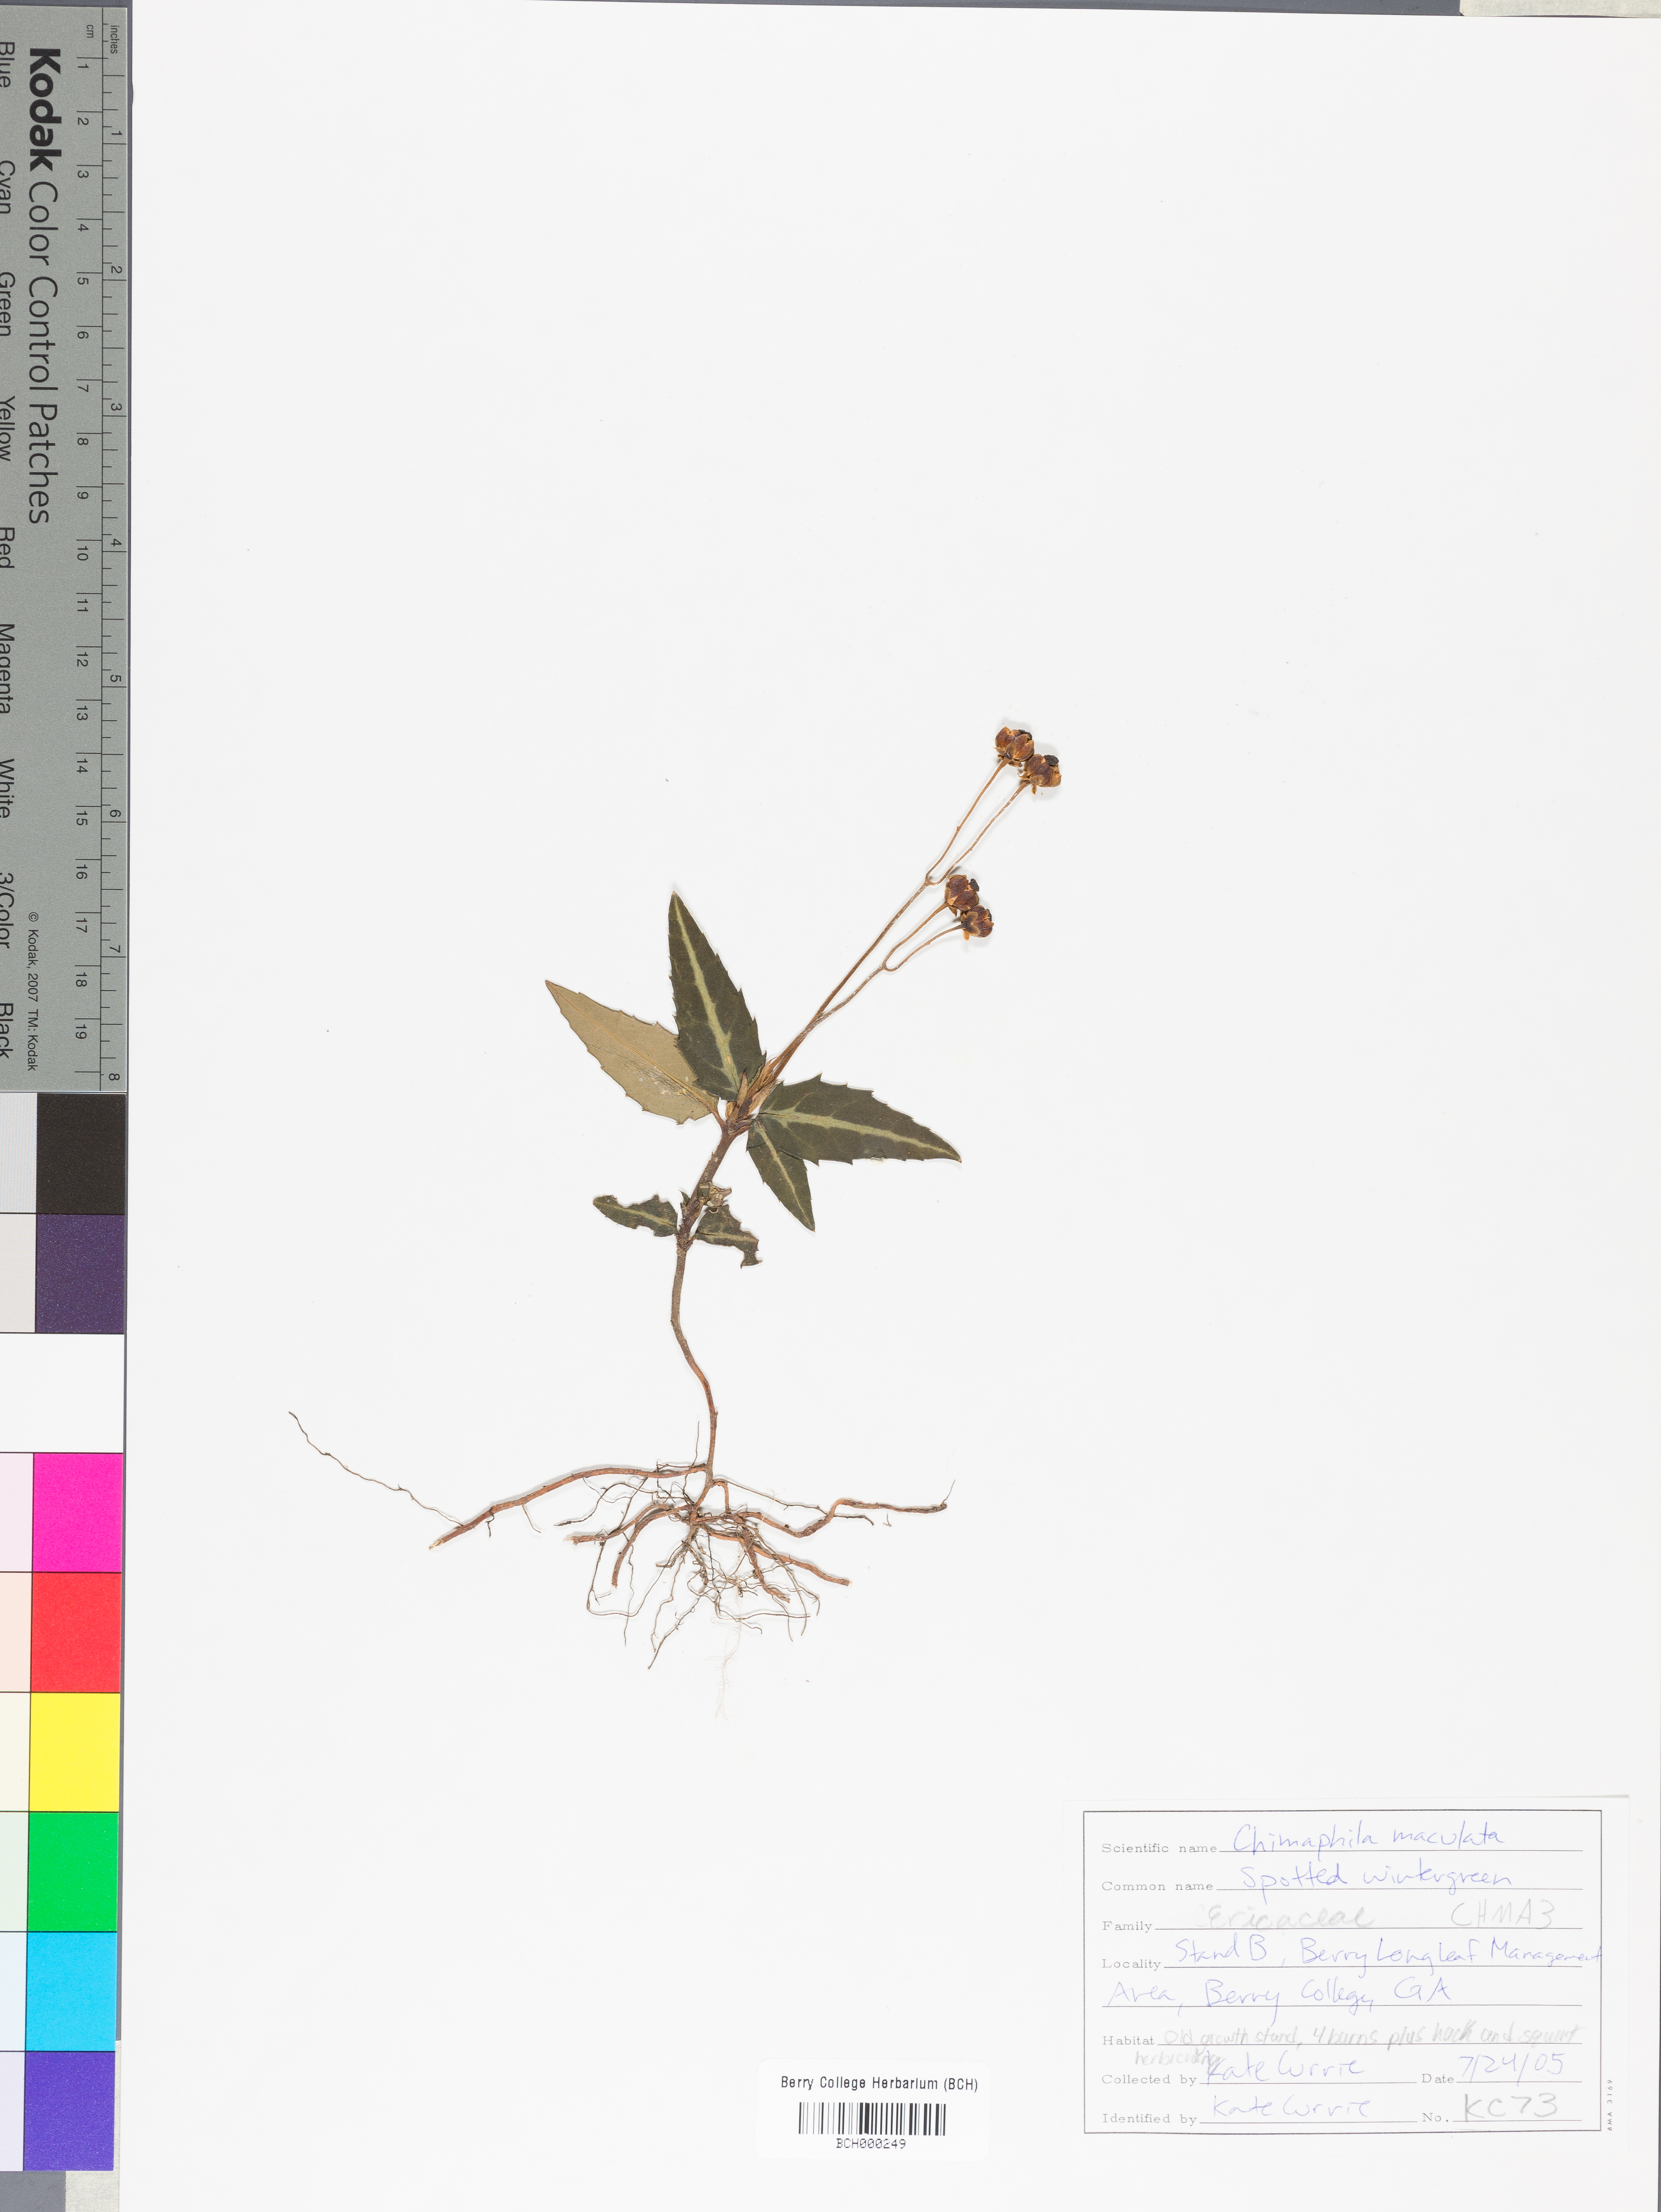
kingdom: Plantae
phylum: Tracheophyta
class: Magnoliopsida
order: Ericales
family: Ericaceae
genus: Chimaphila
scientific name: Chimaphila maculata
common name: Spotted pipsissewa
